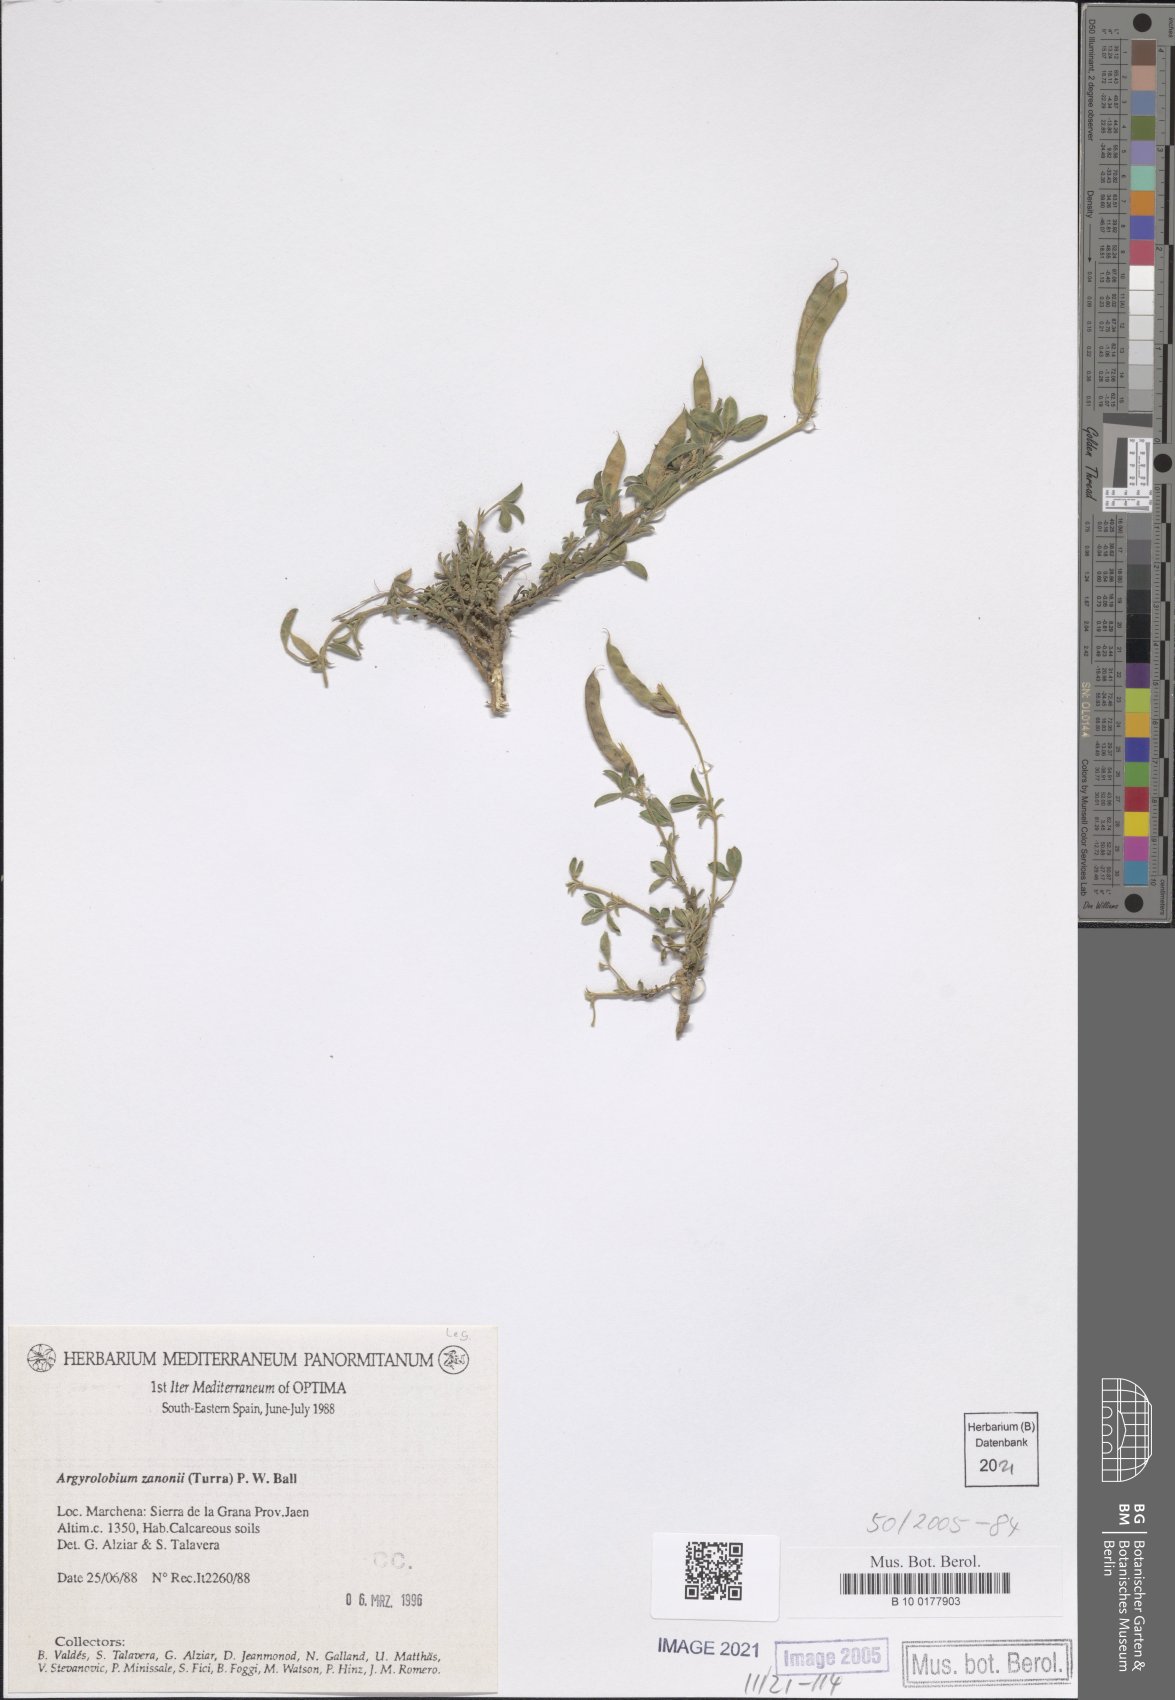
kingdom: Plantae
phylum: Tracheophyta
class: Magnoliopsida
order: Fabales
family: Fabaceae
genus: Argyrolobium
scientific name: Argyrolobium zanonii
